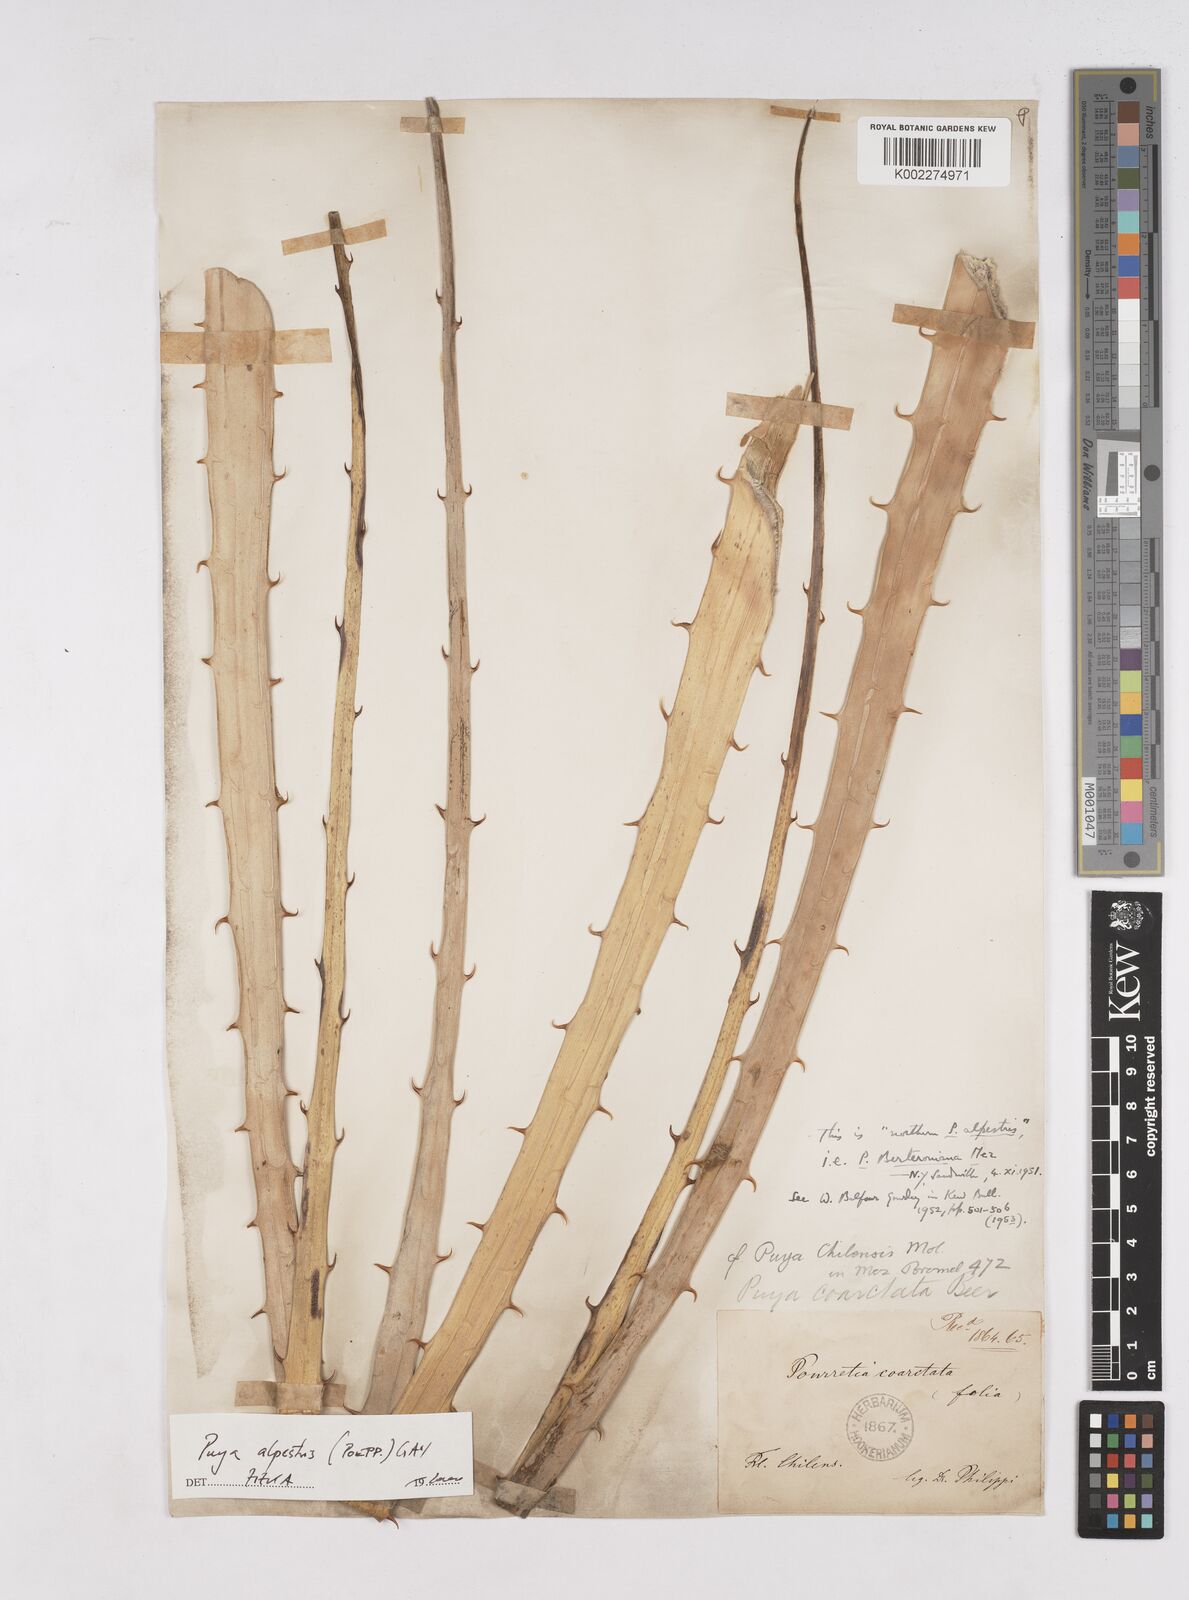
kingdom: Plantae
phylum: Tracheophyta
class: Liliopsida
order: Poales
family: Bromeliaceae
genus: Puya
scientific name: Puya berteroniana
